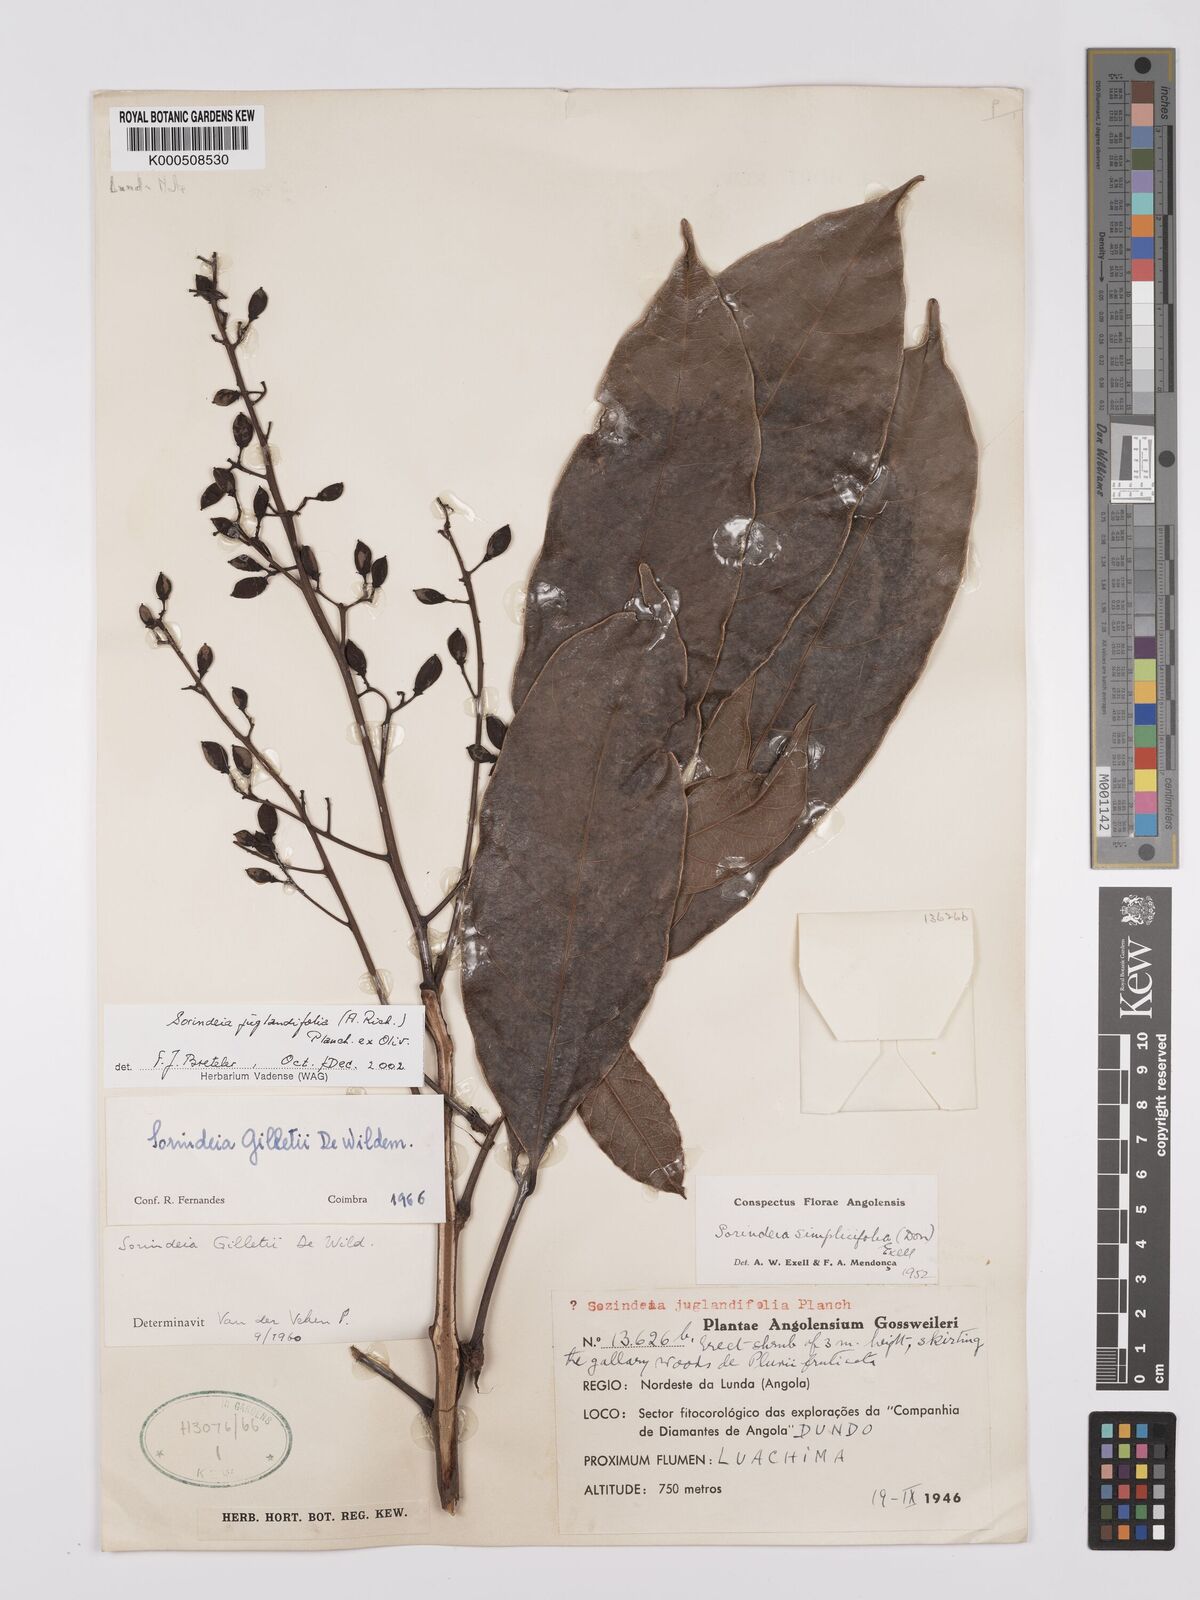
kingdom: Plantae
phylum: Tracheophyta
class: Magnoliopsida
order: Sapindales
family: Anacardiaceae
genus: Sorindeia
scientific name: Sorindeia juglandifolia
